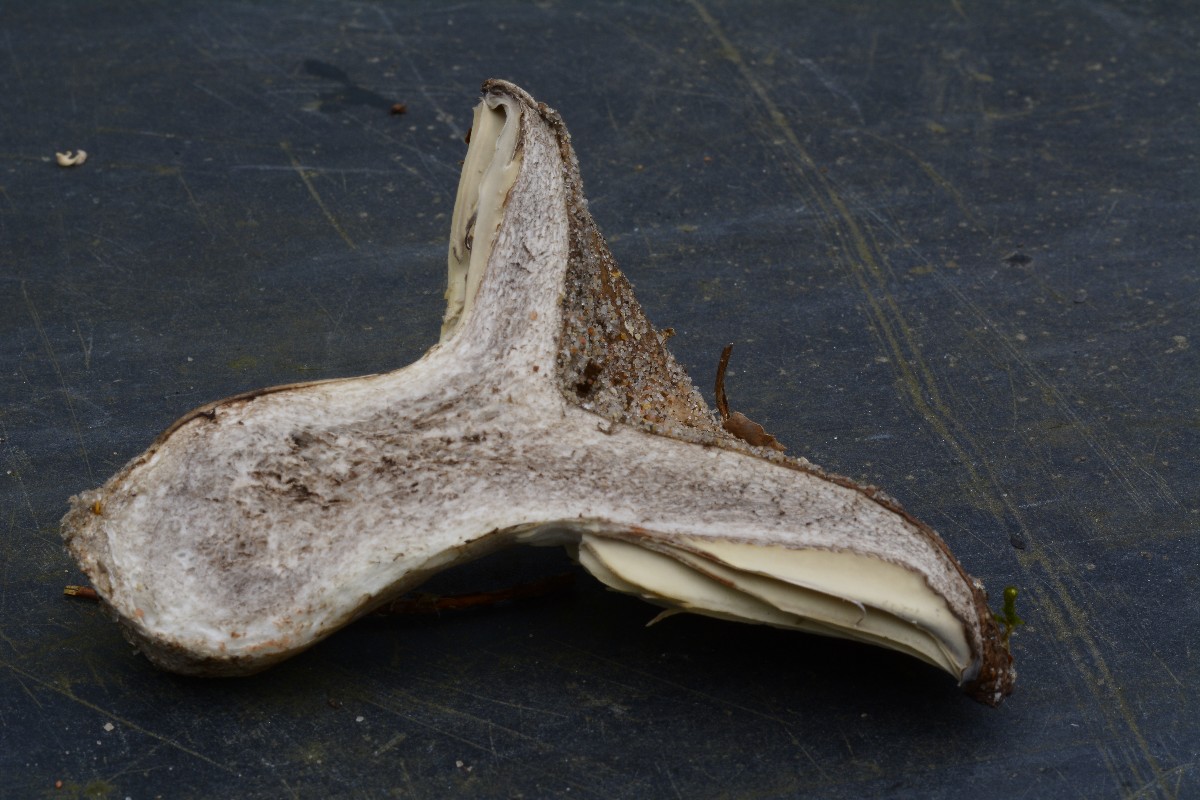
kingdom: Fungi
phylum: Basidiomycota
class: Agaricomycetes
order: Russulales
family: Russulaceae
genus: Russula
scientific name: Russula adusta
